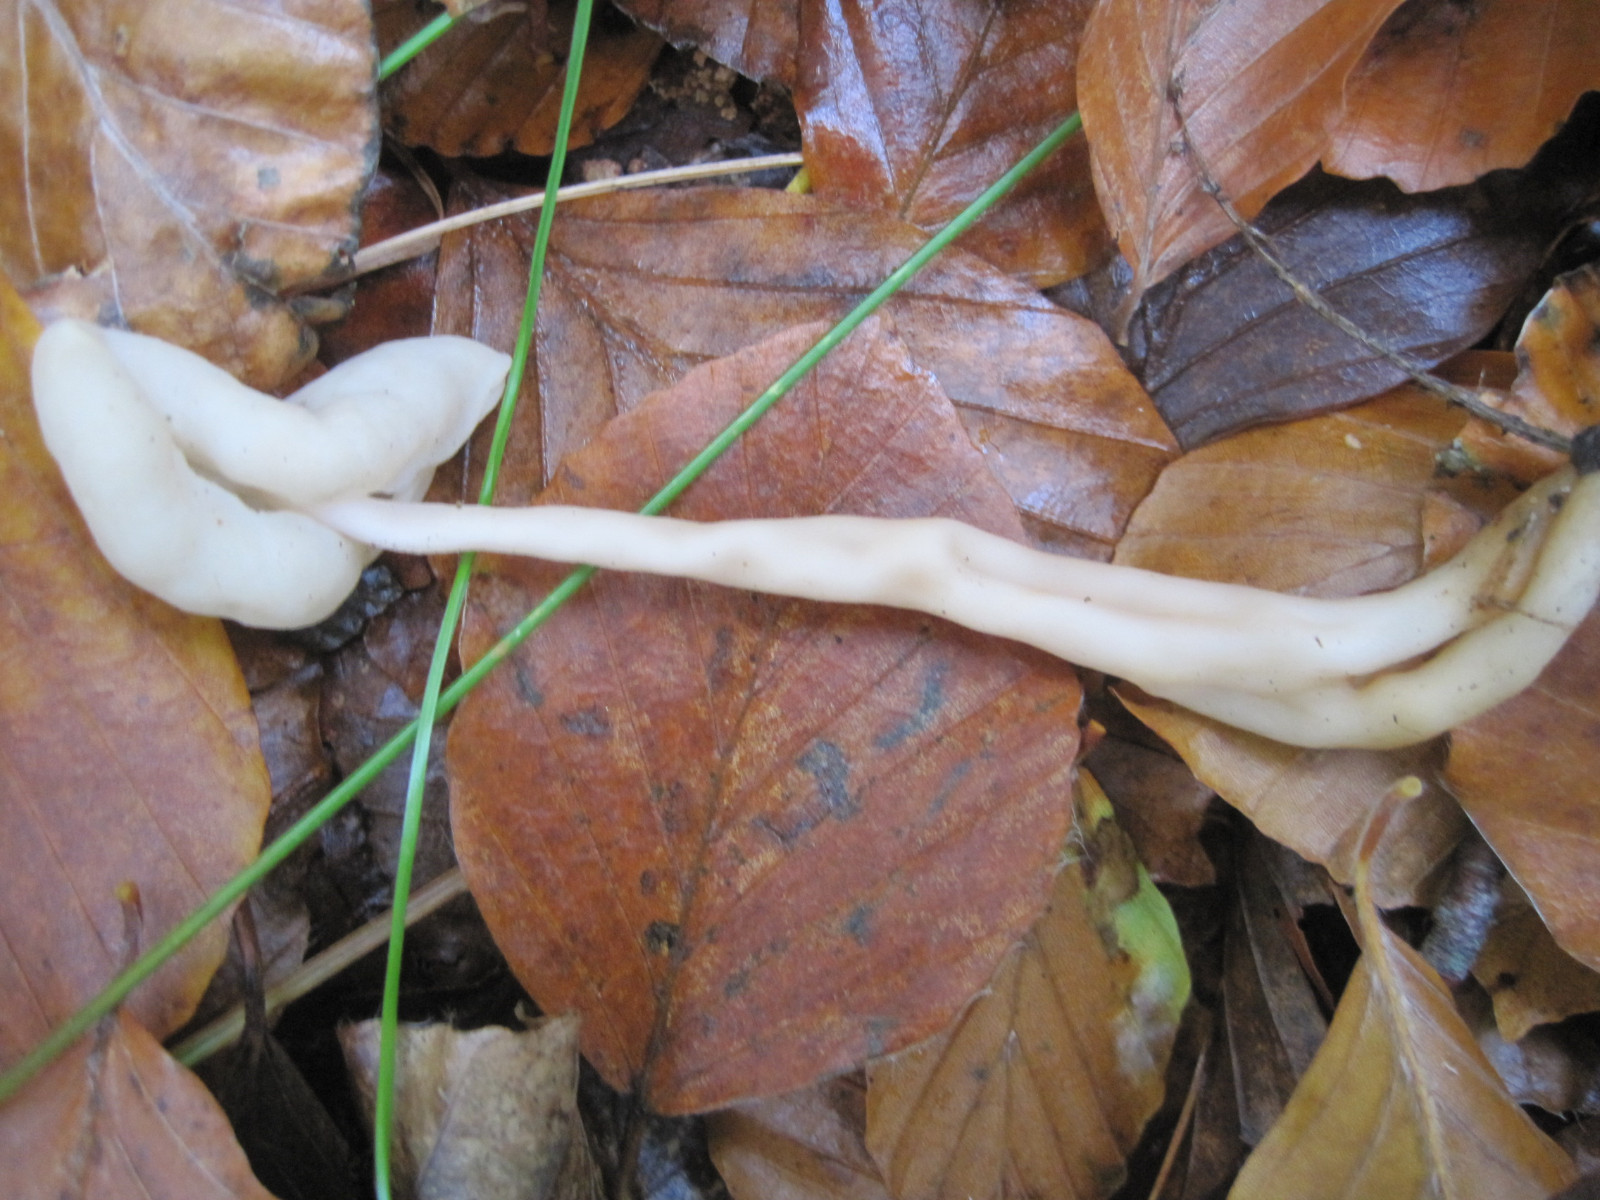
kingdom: Fungi
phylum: Ascomycota
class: Pezizomycetes
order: Pezizales
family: Helvellaceae
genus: Helvella
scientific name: Helvella elastica
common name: elastik-foldhat
